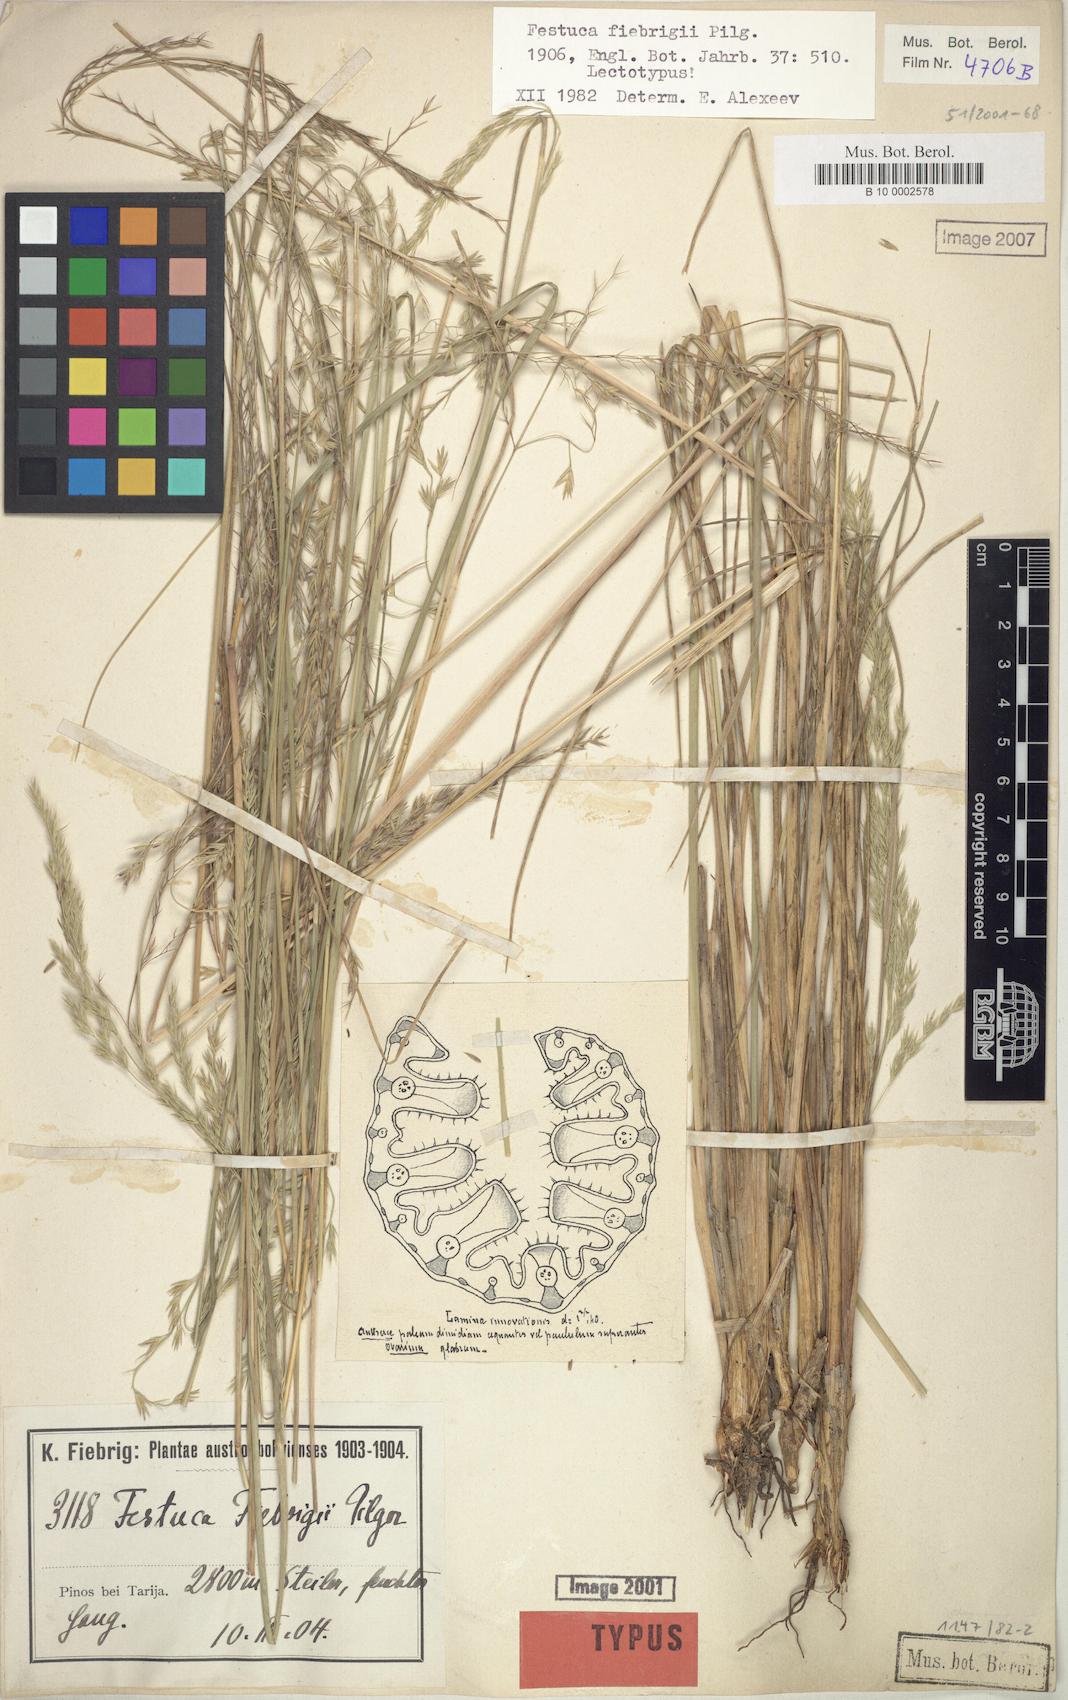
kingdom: Plantae
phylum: Tracheophyta
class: Liliopsida
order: Poales
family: Poaceae
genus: Festuca
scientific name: Festuca fiebrigii
